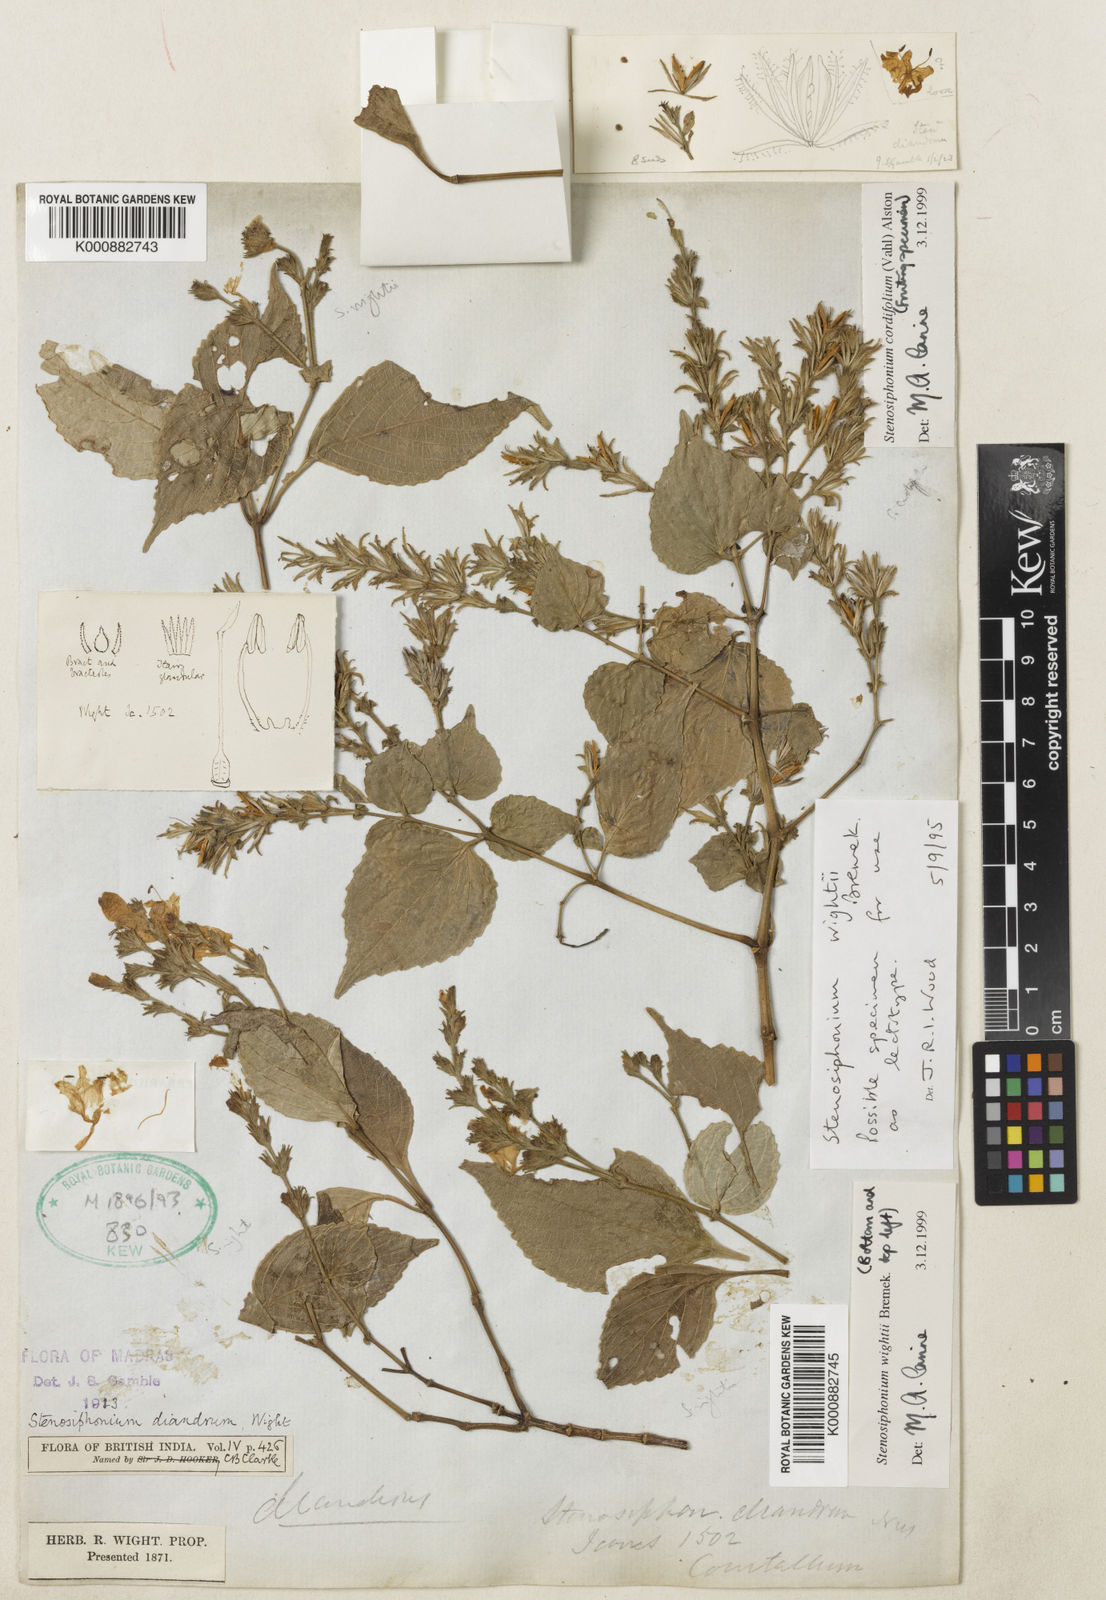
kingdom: Plantae
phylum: Tracheophyta
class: Magnoliopsida
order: Lamiales
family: Acanthaceae
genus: Strobilanthes
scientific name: Strobilanthes cordifolia
